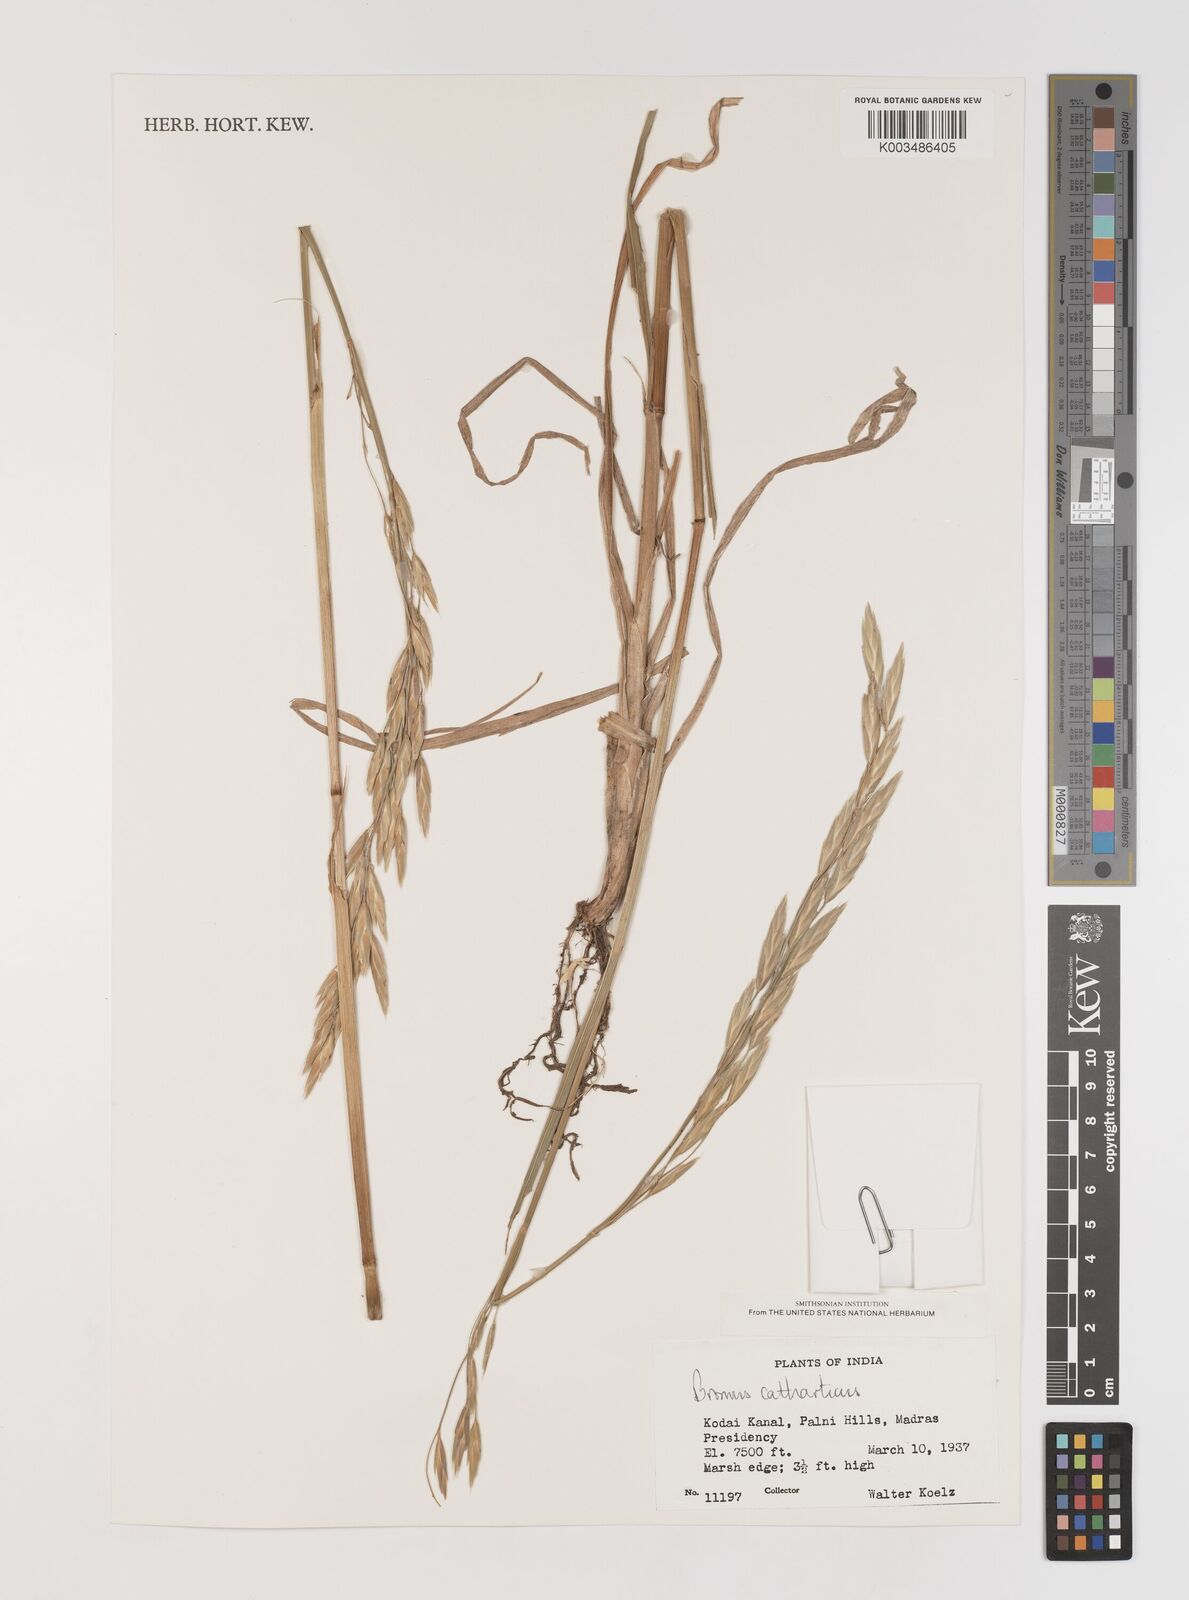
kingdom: Plantae
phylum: Tracheophyta
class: Liliopsida
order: Poales
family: Poaceae
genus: Bromus
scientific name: Bromus catharticus
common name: Rescuegrass
